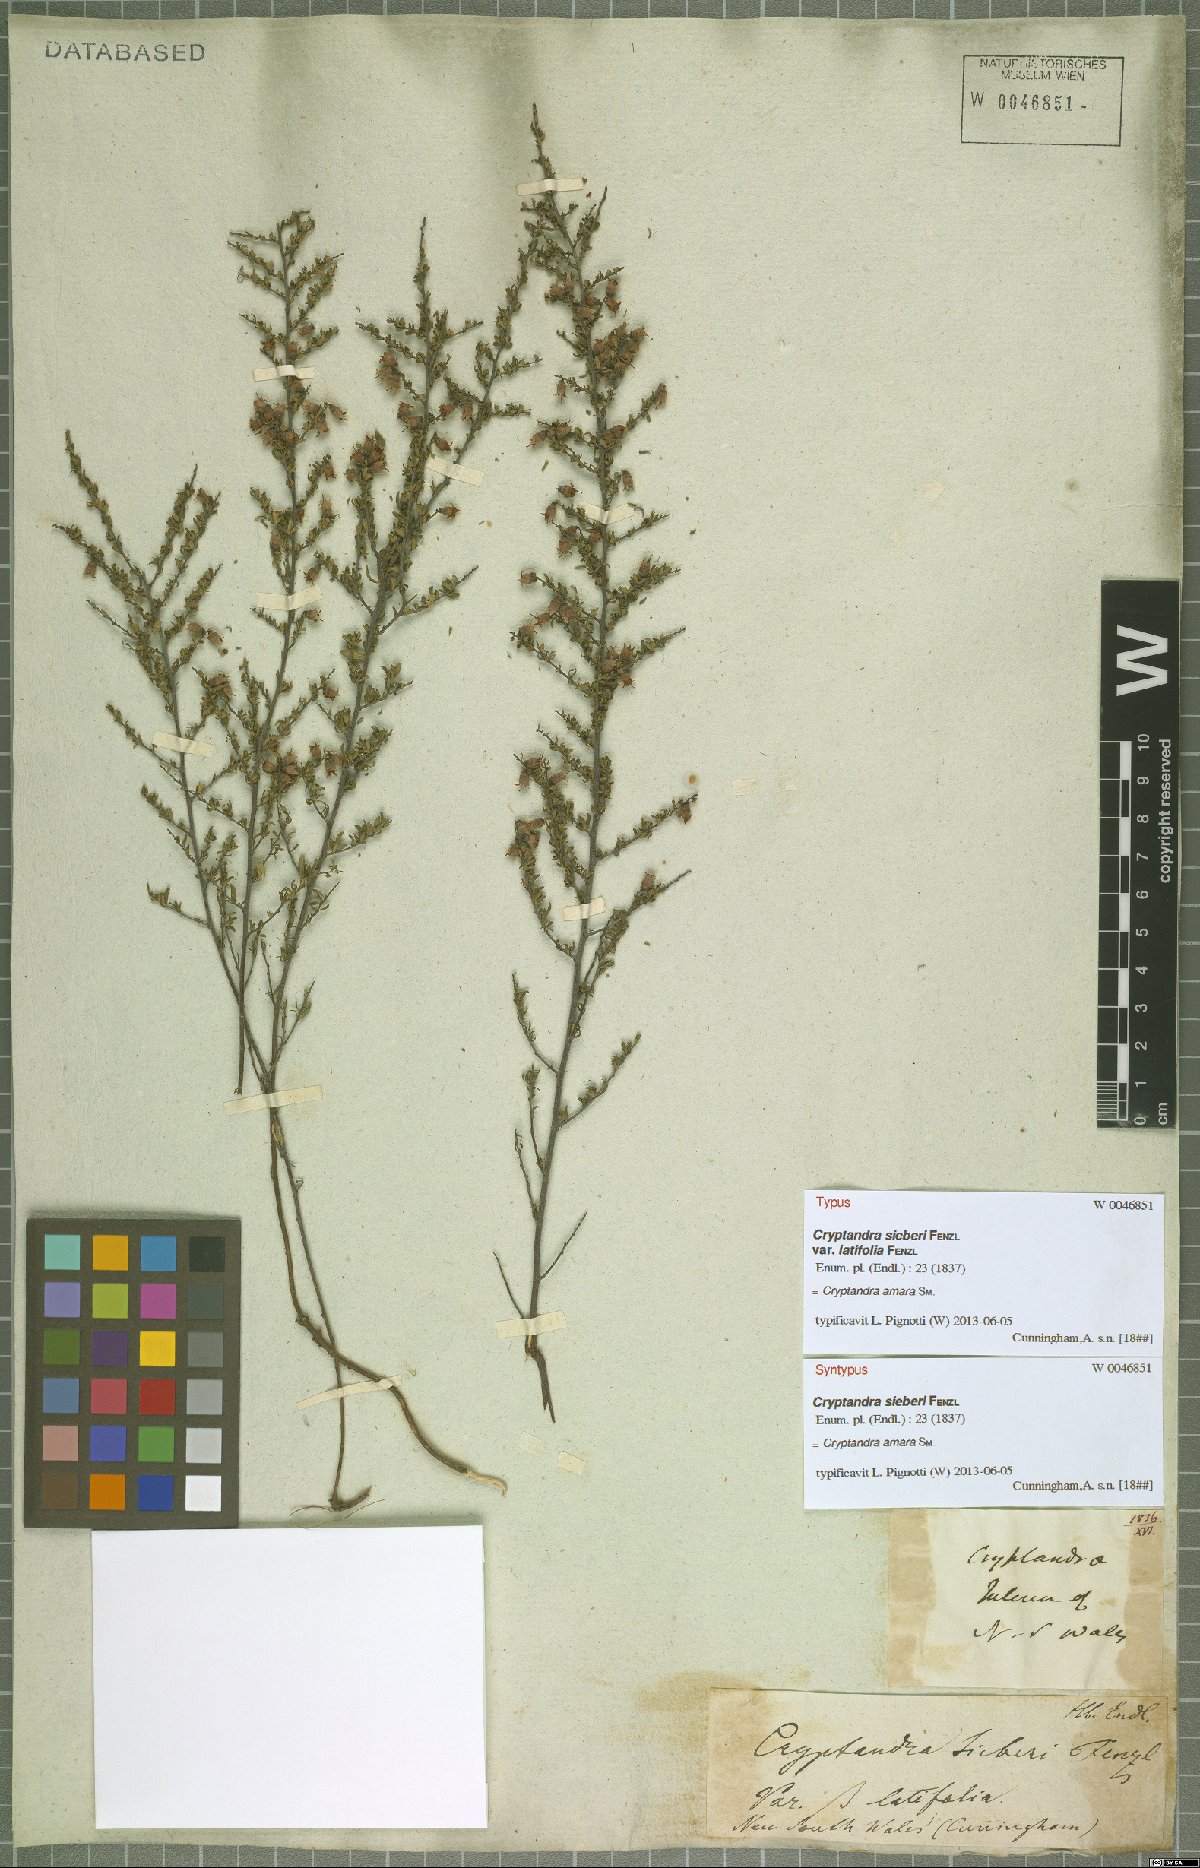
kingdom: Plantae
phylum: Tracheophyta
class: Magnoliopsida
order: Rosales
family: Rhamnaceae
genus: Cryptandra
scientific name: Cryptandra amara
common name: Bitter cryptandra
